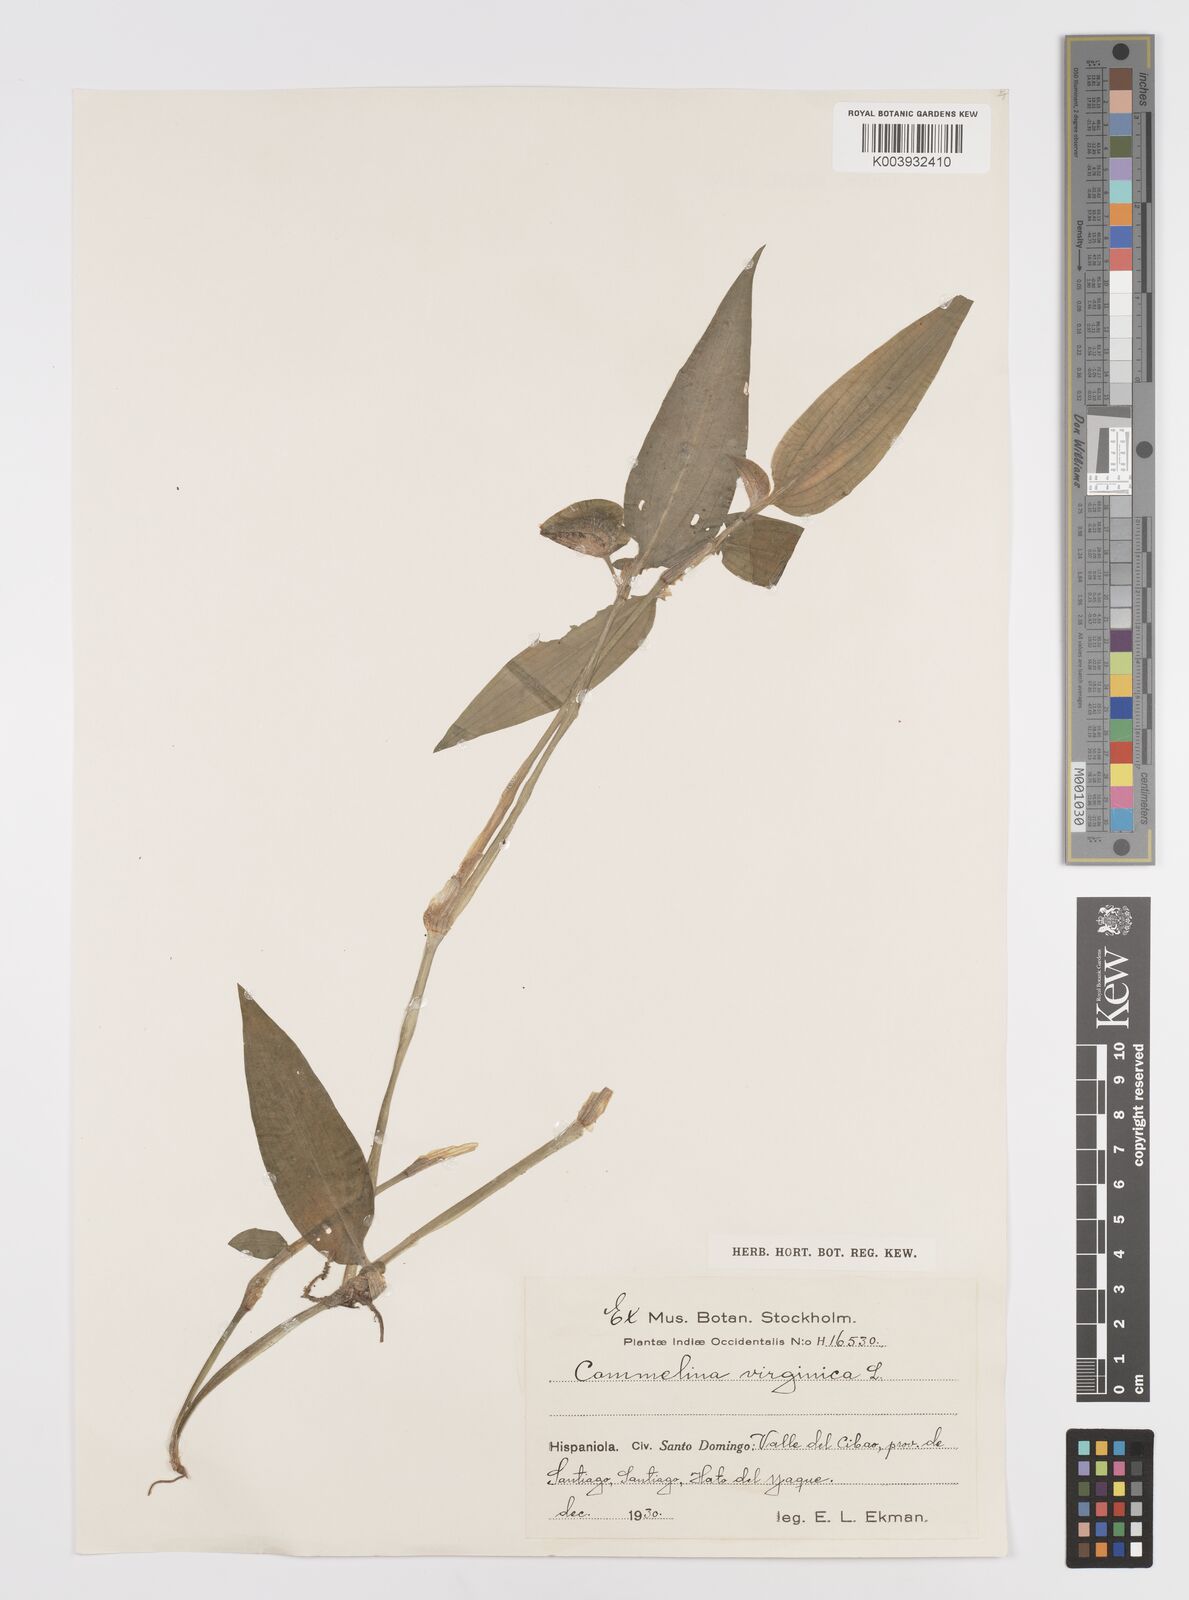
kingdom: Plantae
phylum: Tracheophyta
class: Liliopsida
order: Commelinales
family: Commelinaceae
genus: Commelina
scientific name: Commelina erecta
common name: Blousel blommetjie
